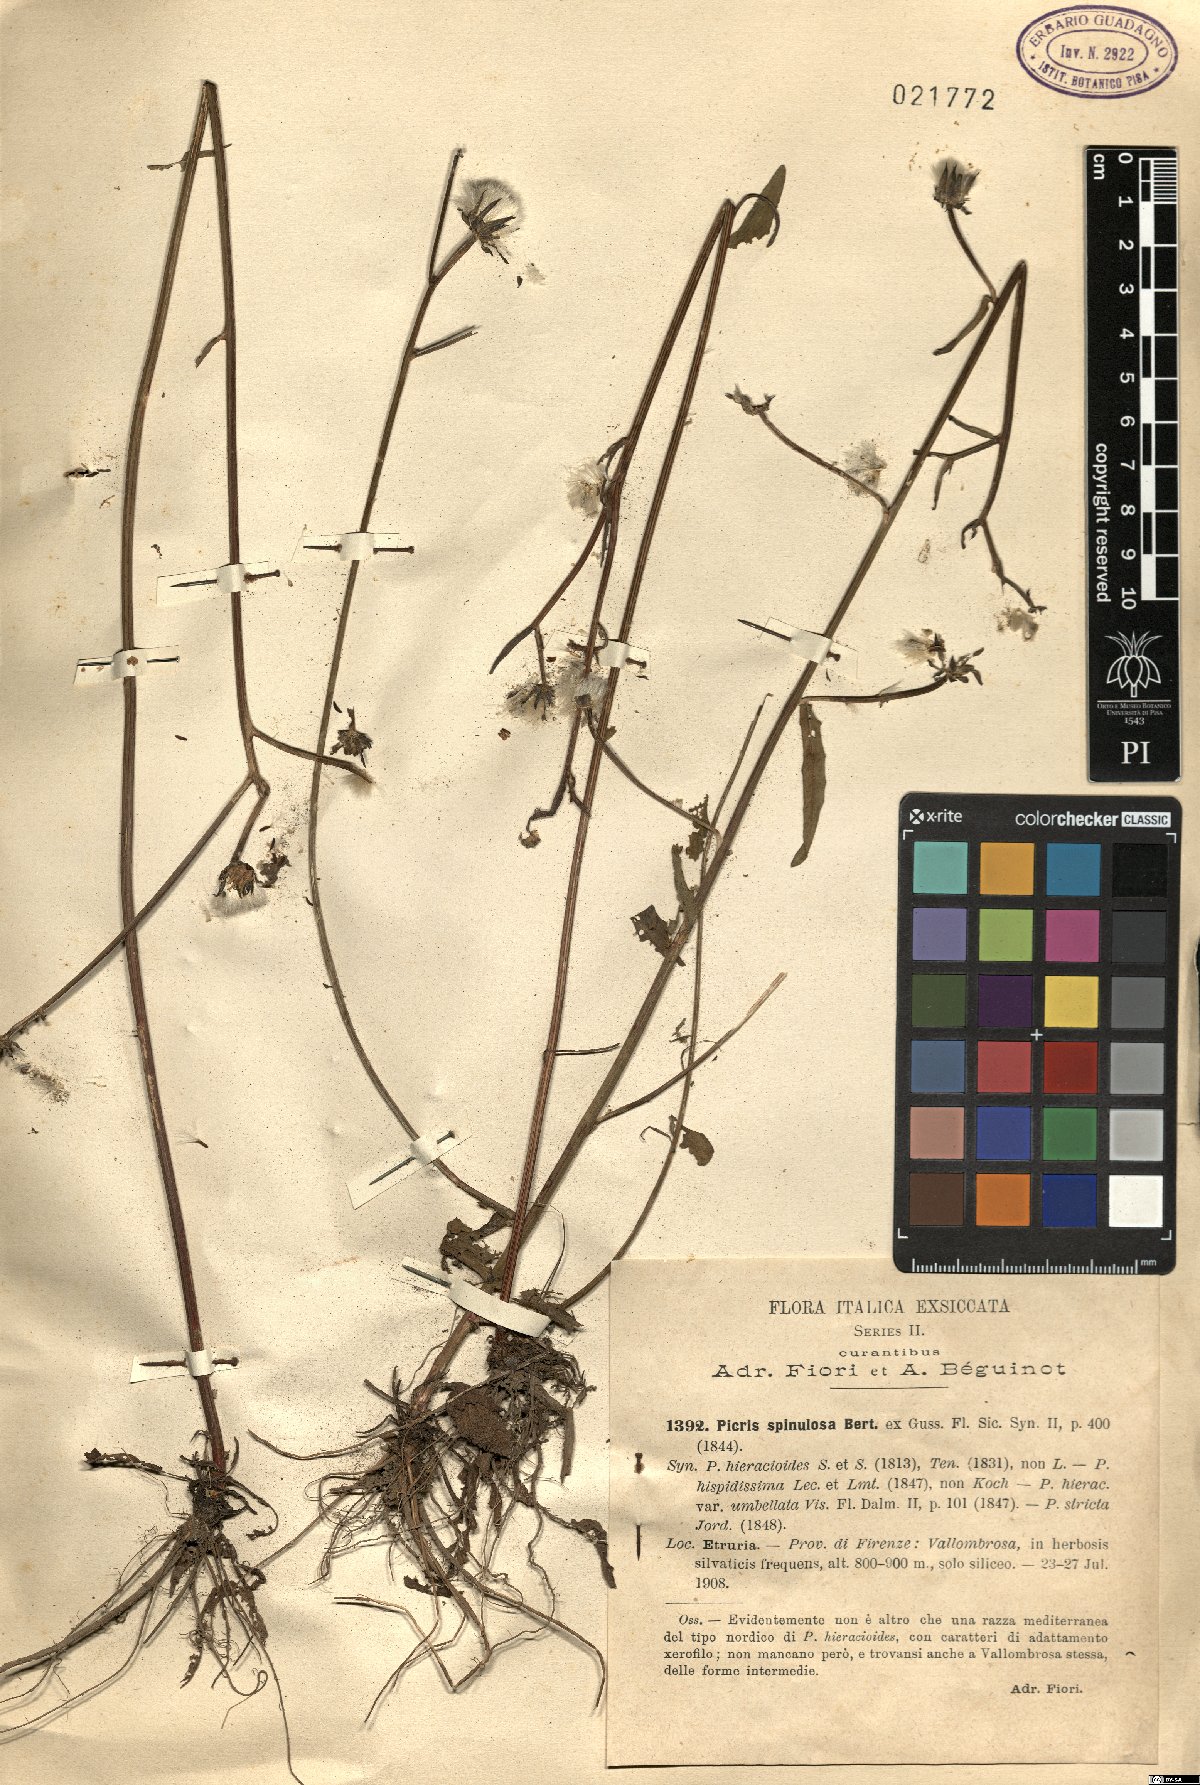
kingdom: Plantae
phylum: Tracheophyta
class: Magnoliopsida
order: Asterales
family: Asteraceae
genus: Picris
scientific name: Picris hieracioides
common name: Hawkweed oxtongue
